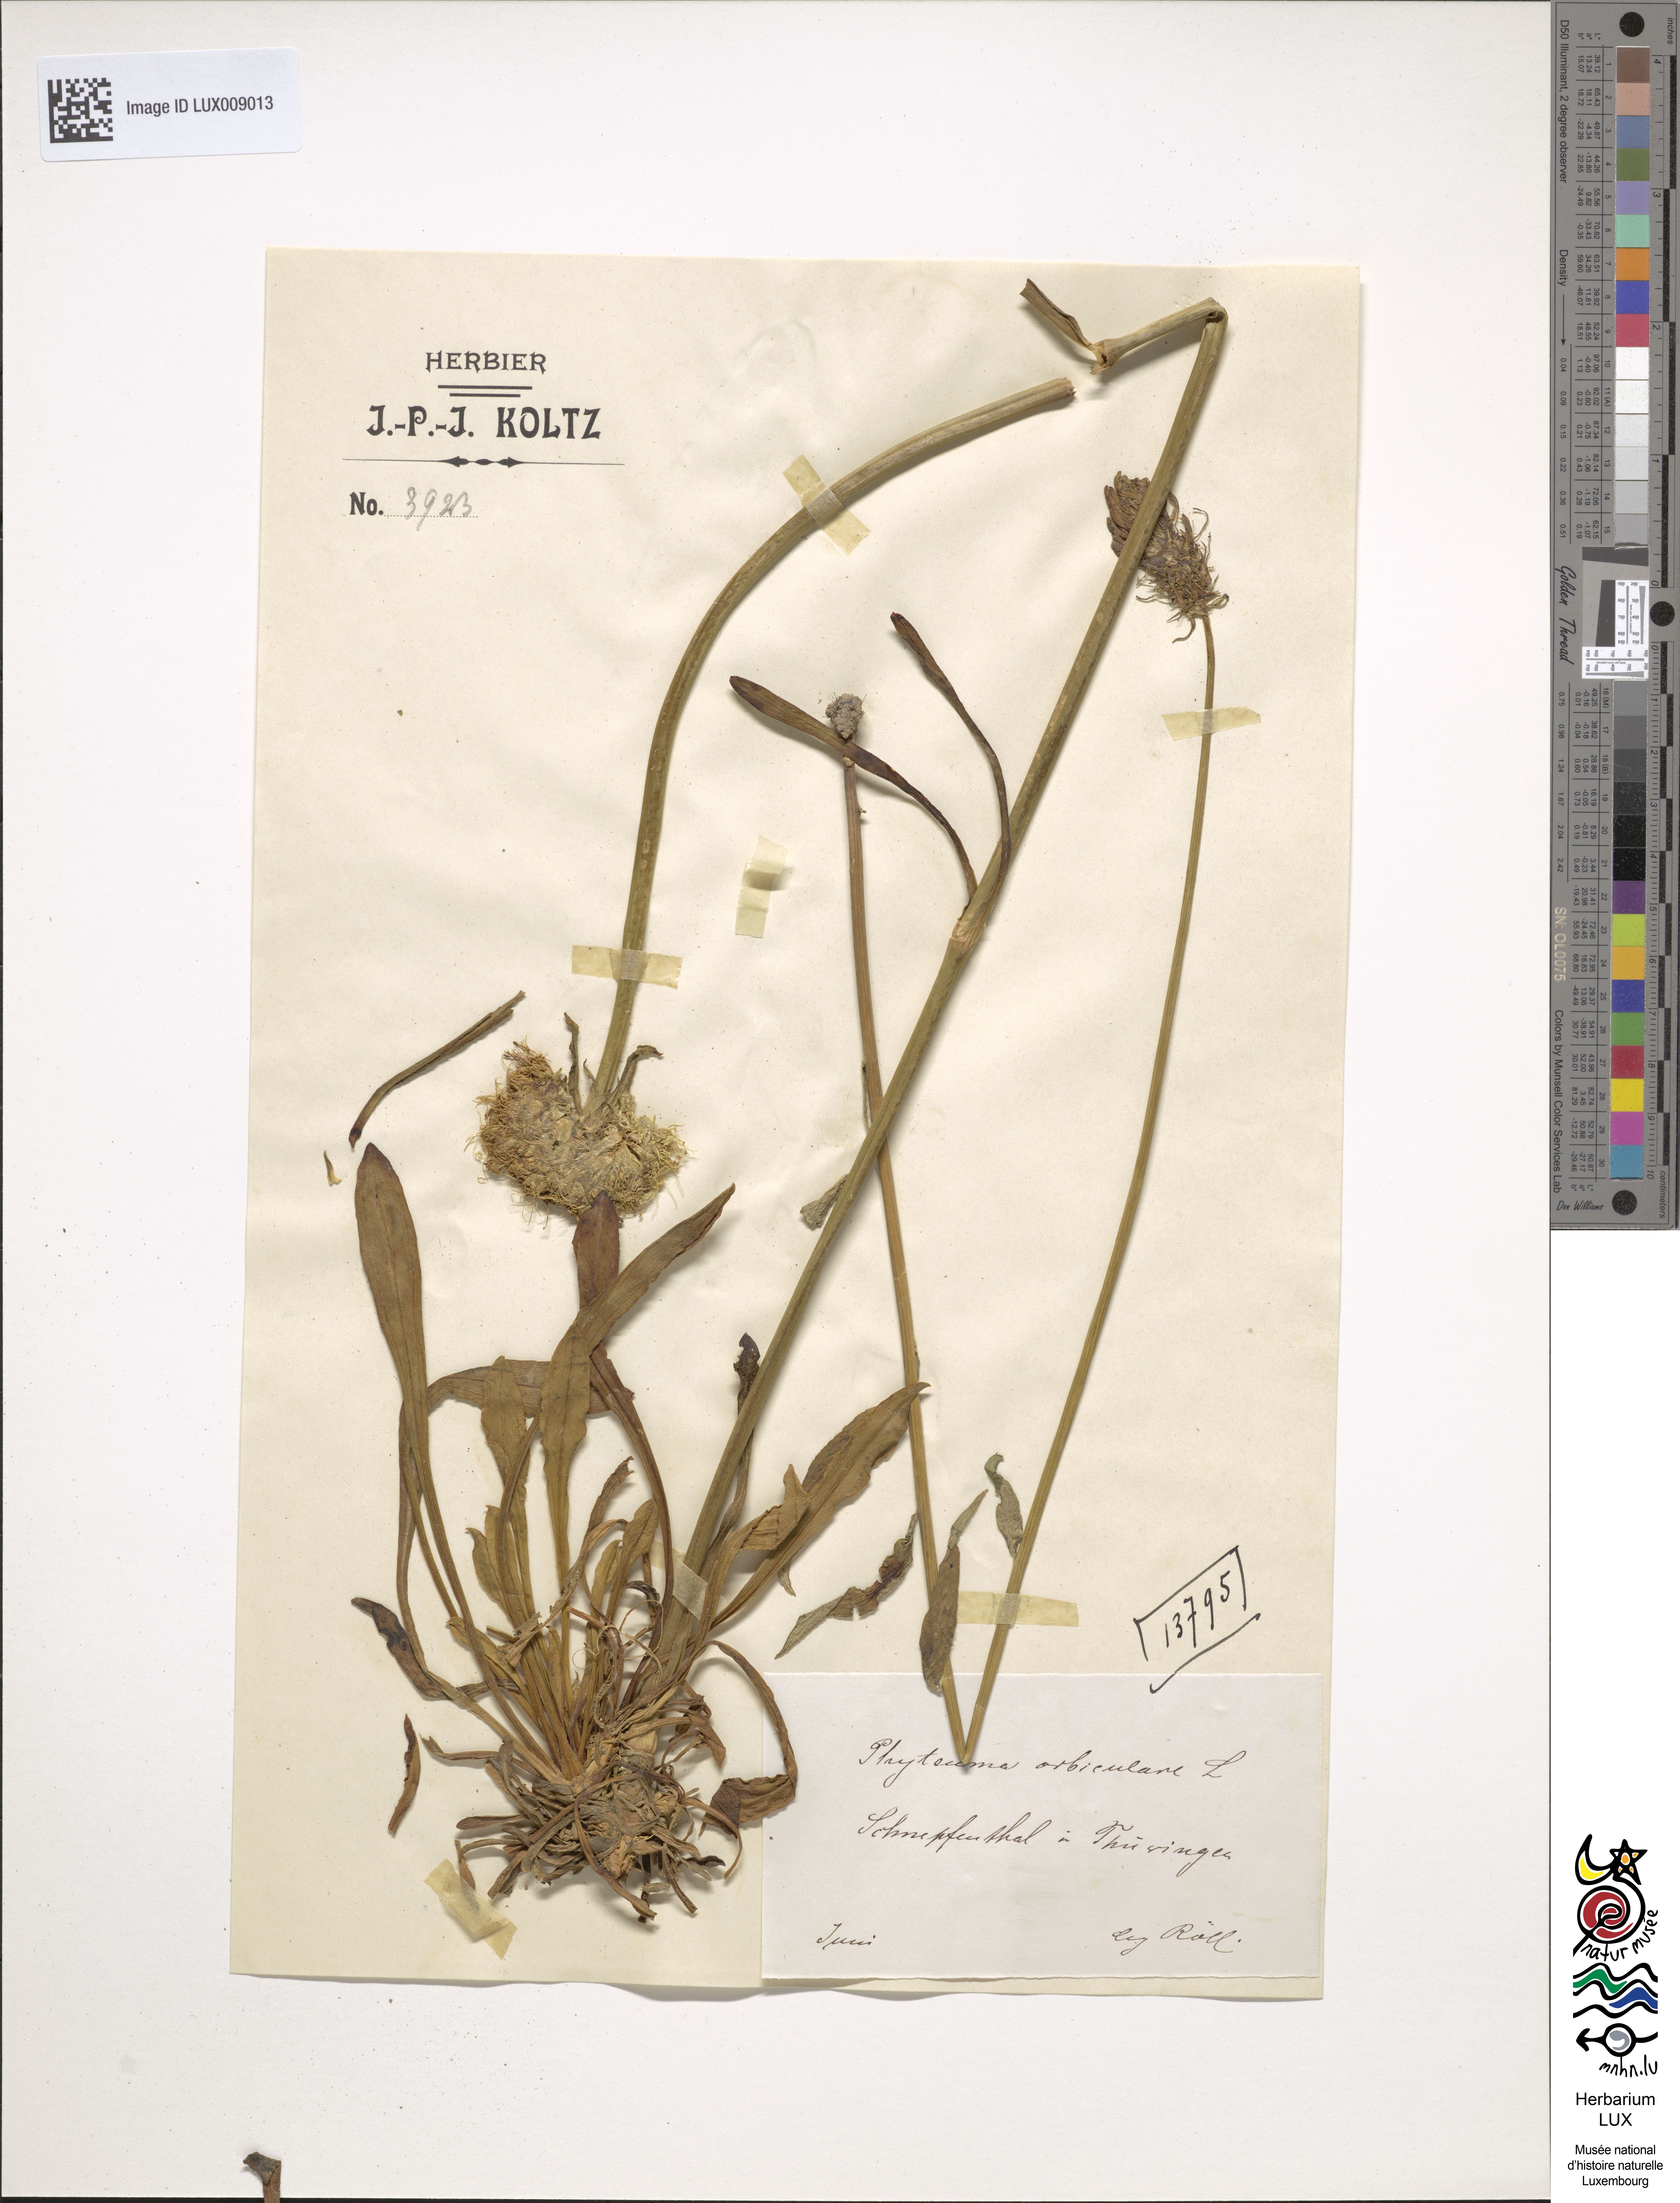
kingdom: Plantae
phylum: Tracheophyta
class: Magnoliopsida
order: Asterales
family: Campanulaceae
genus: Phyteuma
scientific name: Phyteuma orbiculare
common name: Round-headed rampion
